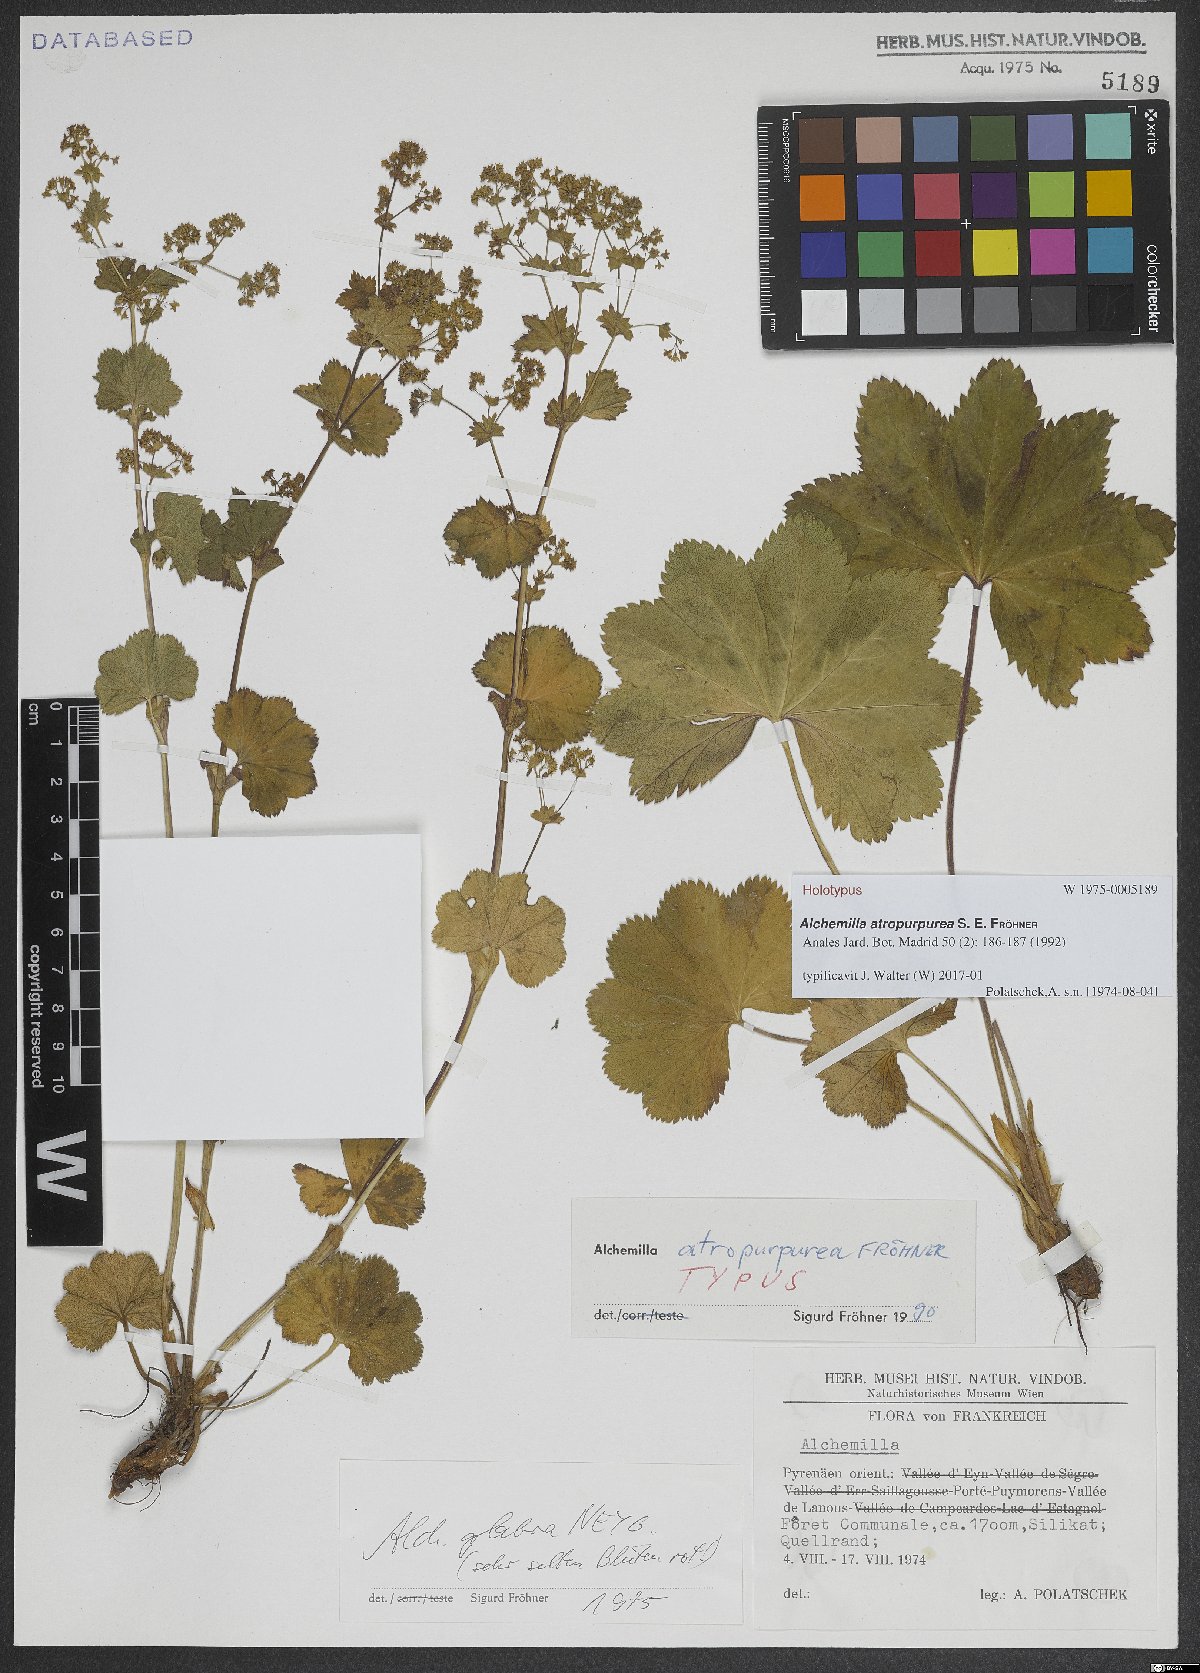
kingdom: Plantae
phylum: Tracheophyta
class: Magnoliopsida
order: Rosales
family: Rosaceae
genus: Alchemilla
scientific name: Alchemilla atropurpurea
